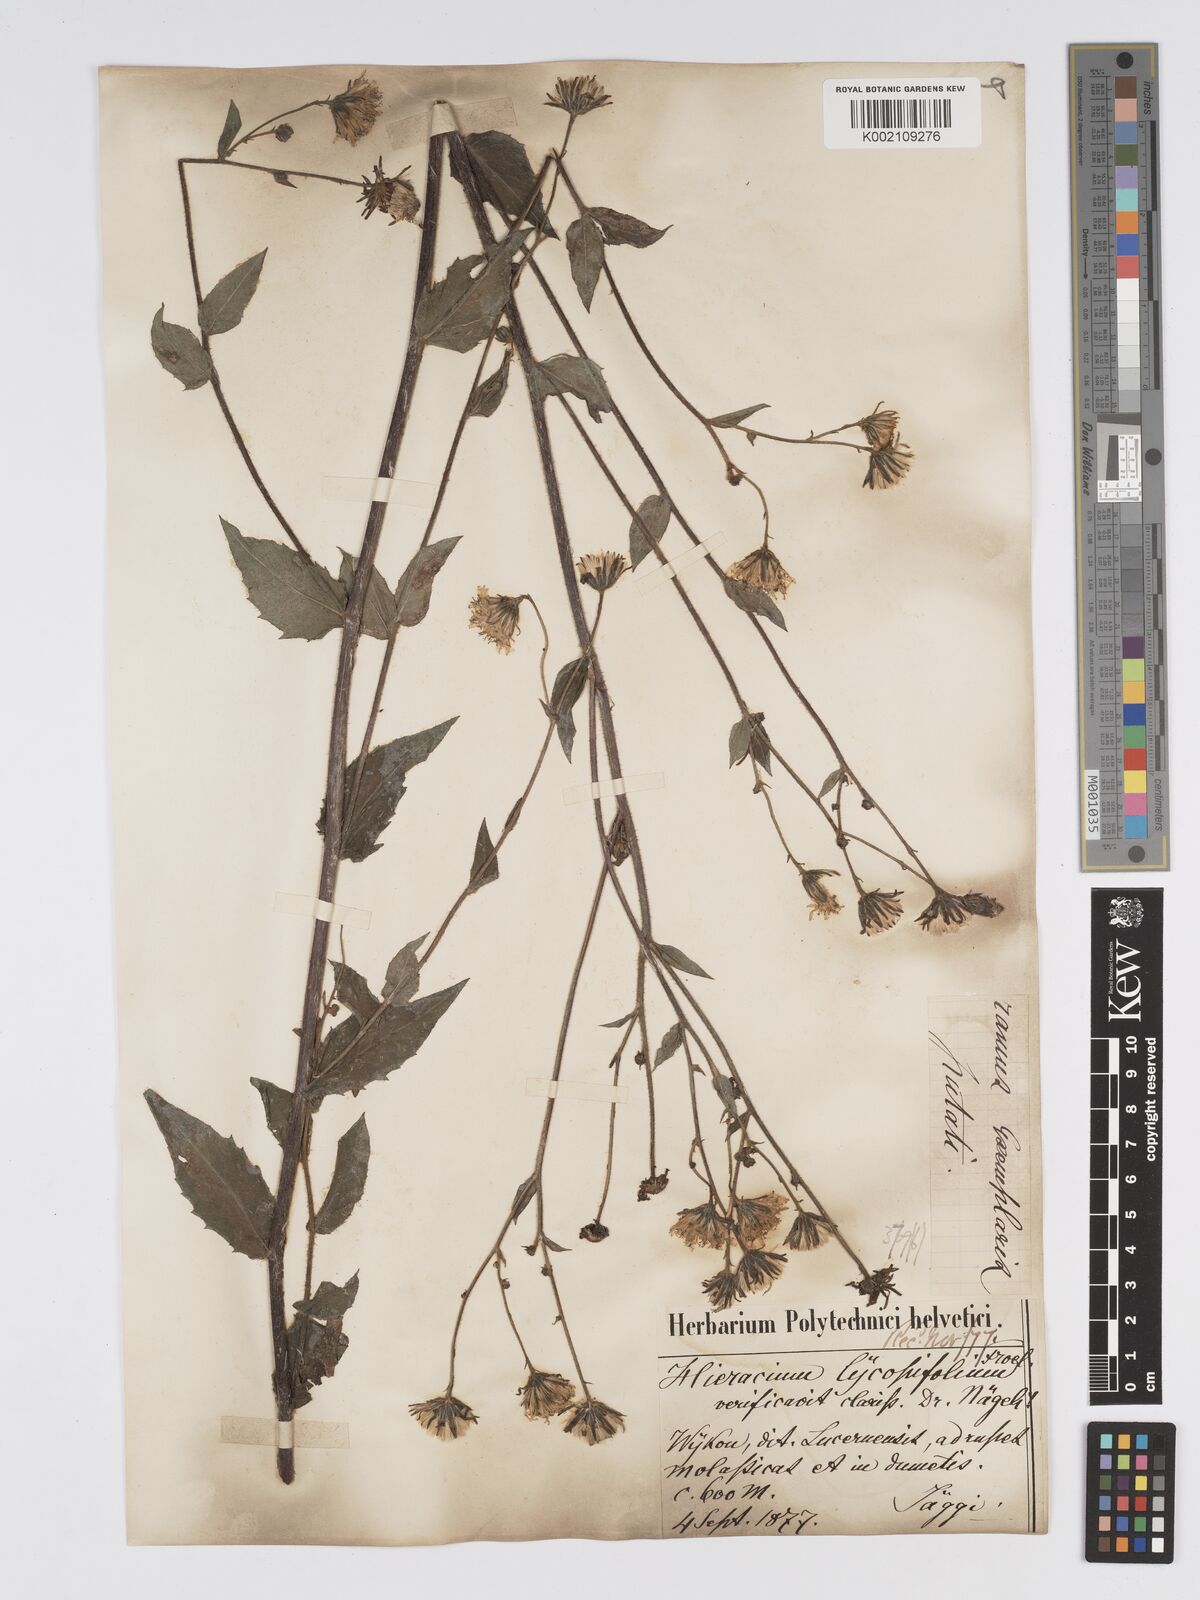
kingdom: Plantae
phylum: Tracheophyta
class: Magnoliopsida
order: Asterales
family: Asteraceae
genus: Hieracium
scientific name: Hieracium lycopifolium
